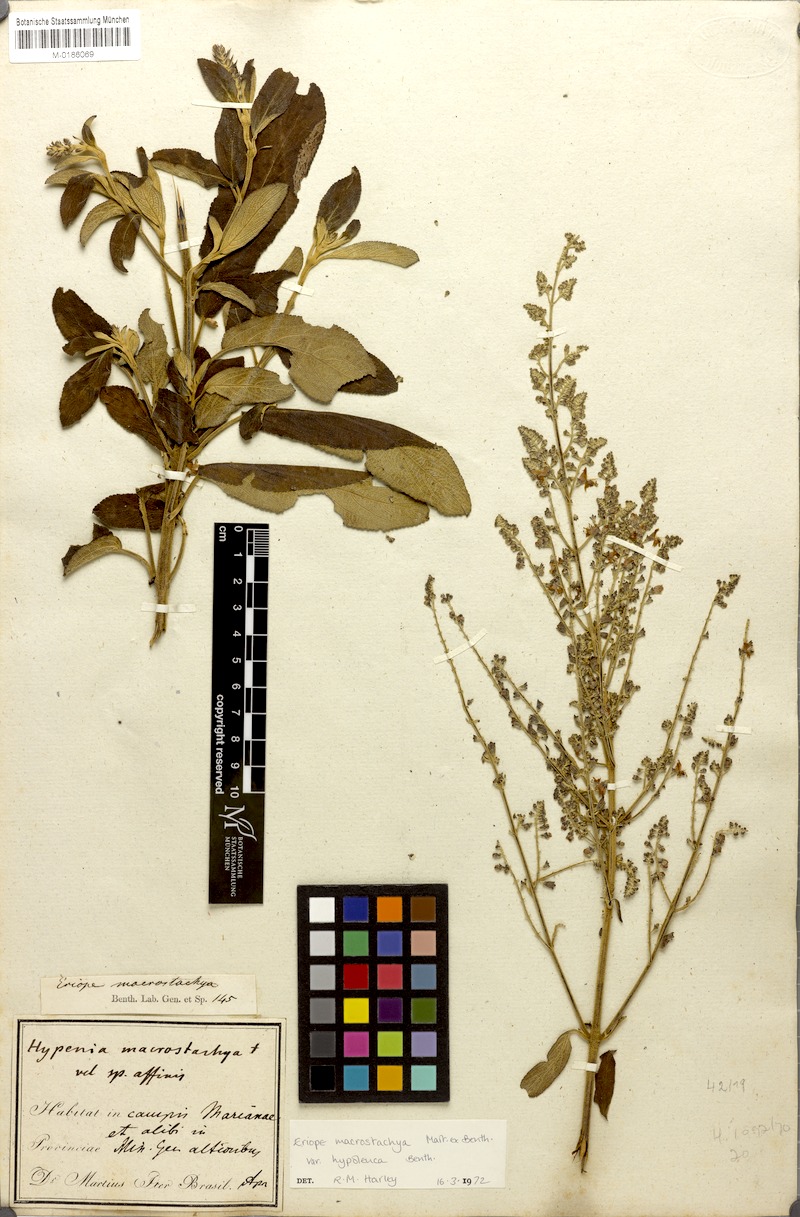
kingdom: Plantae
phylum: Tracheophyta
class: Magnoliopsida
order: Lamiales
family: Lamiaceae
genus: Eriope
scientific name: Eriope macrostachya
